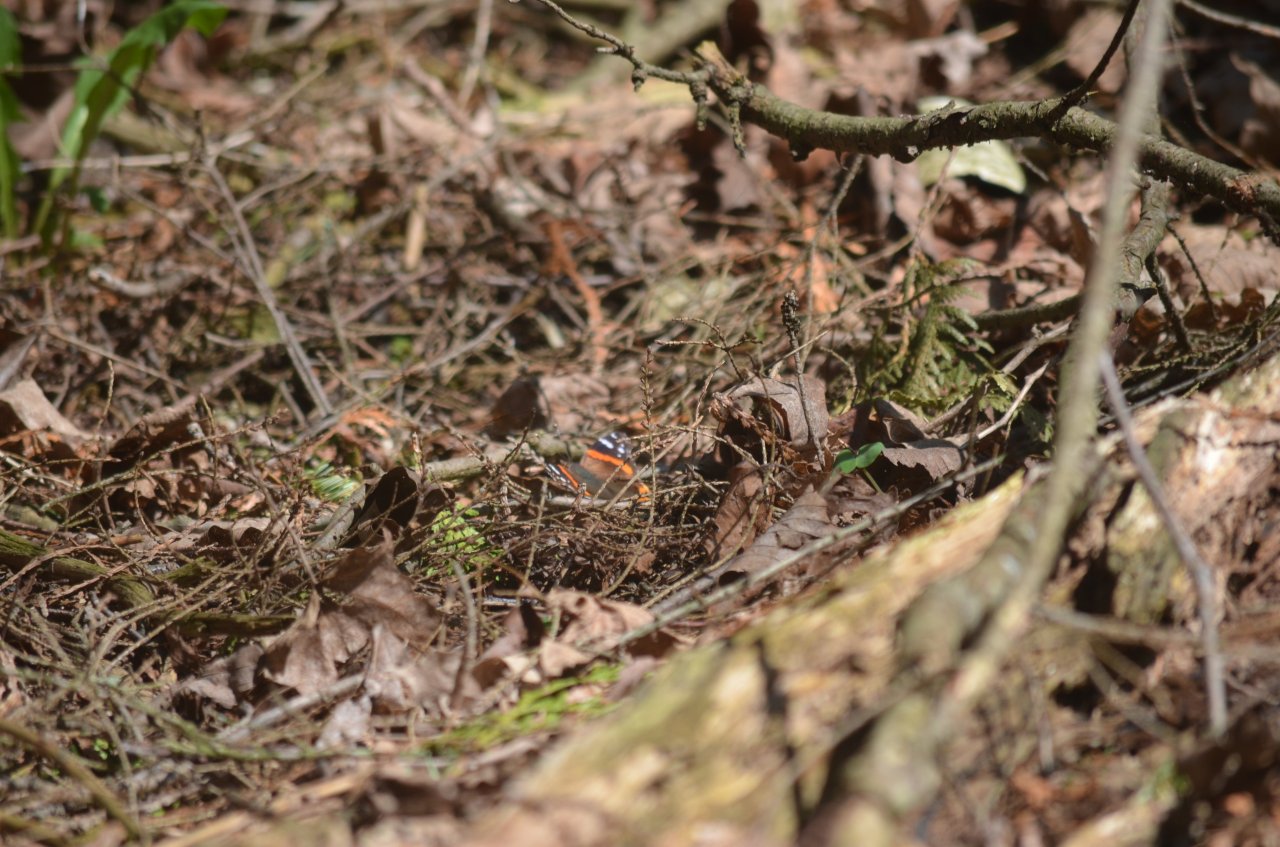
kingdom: Animalia
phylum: Arthropoda
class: Insecta
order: Lepidoptera
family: Nymphalidae
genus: Vanessa
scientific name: Vanessa atalanta
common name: Red Admiral
